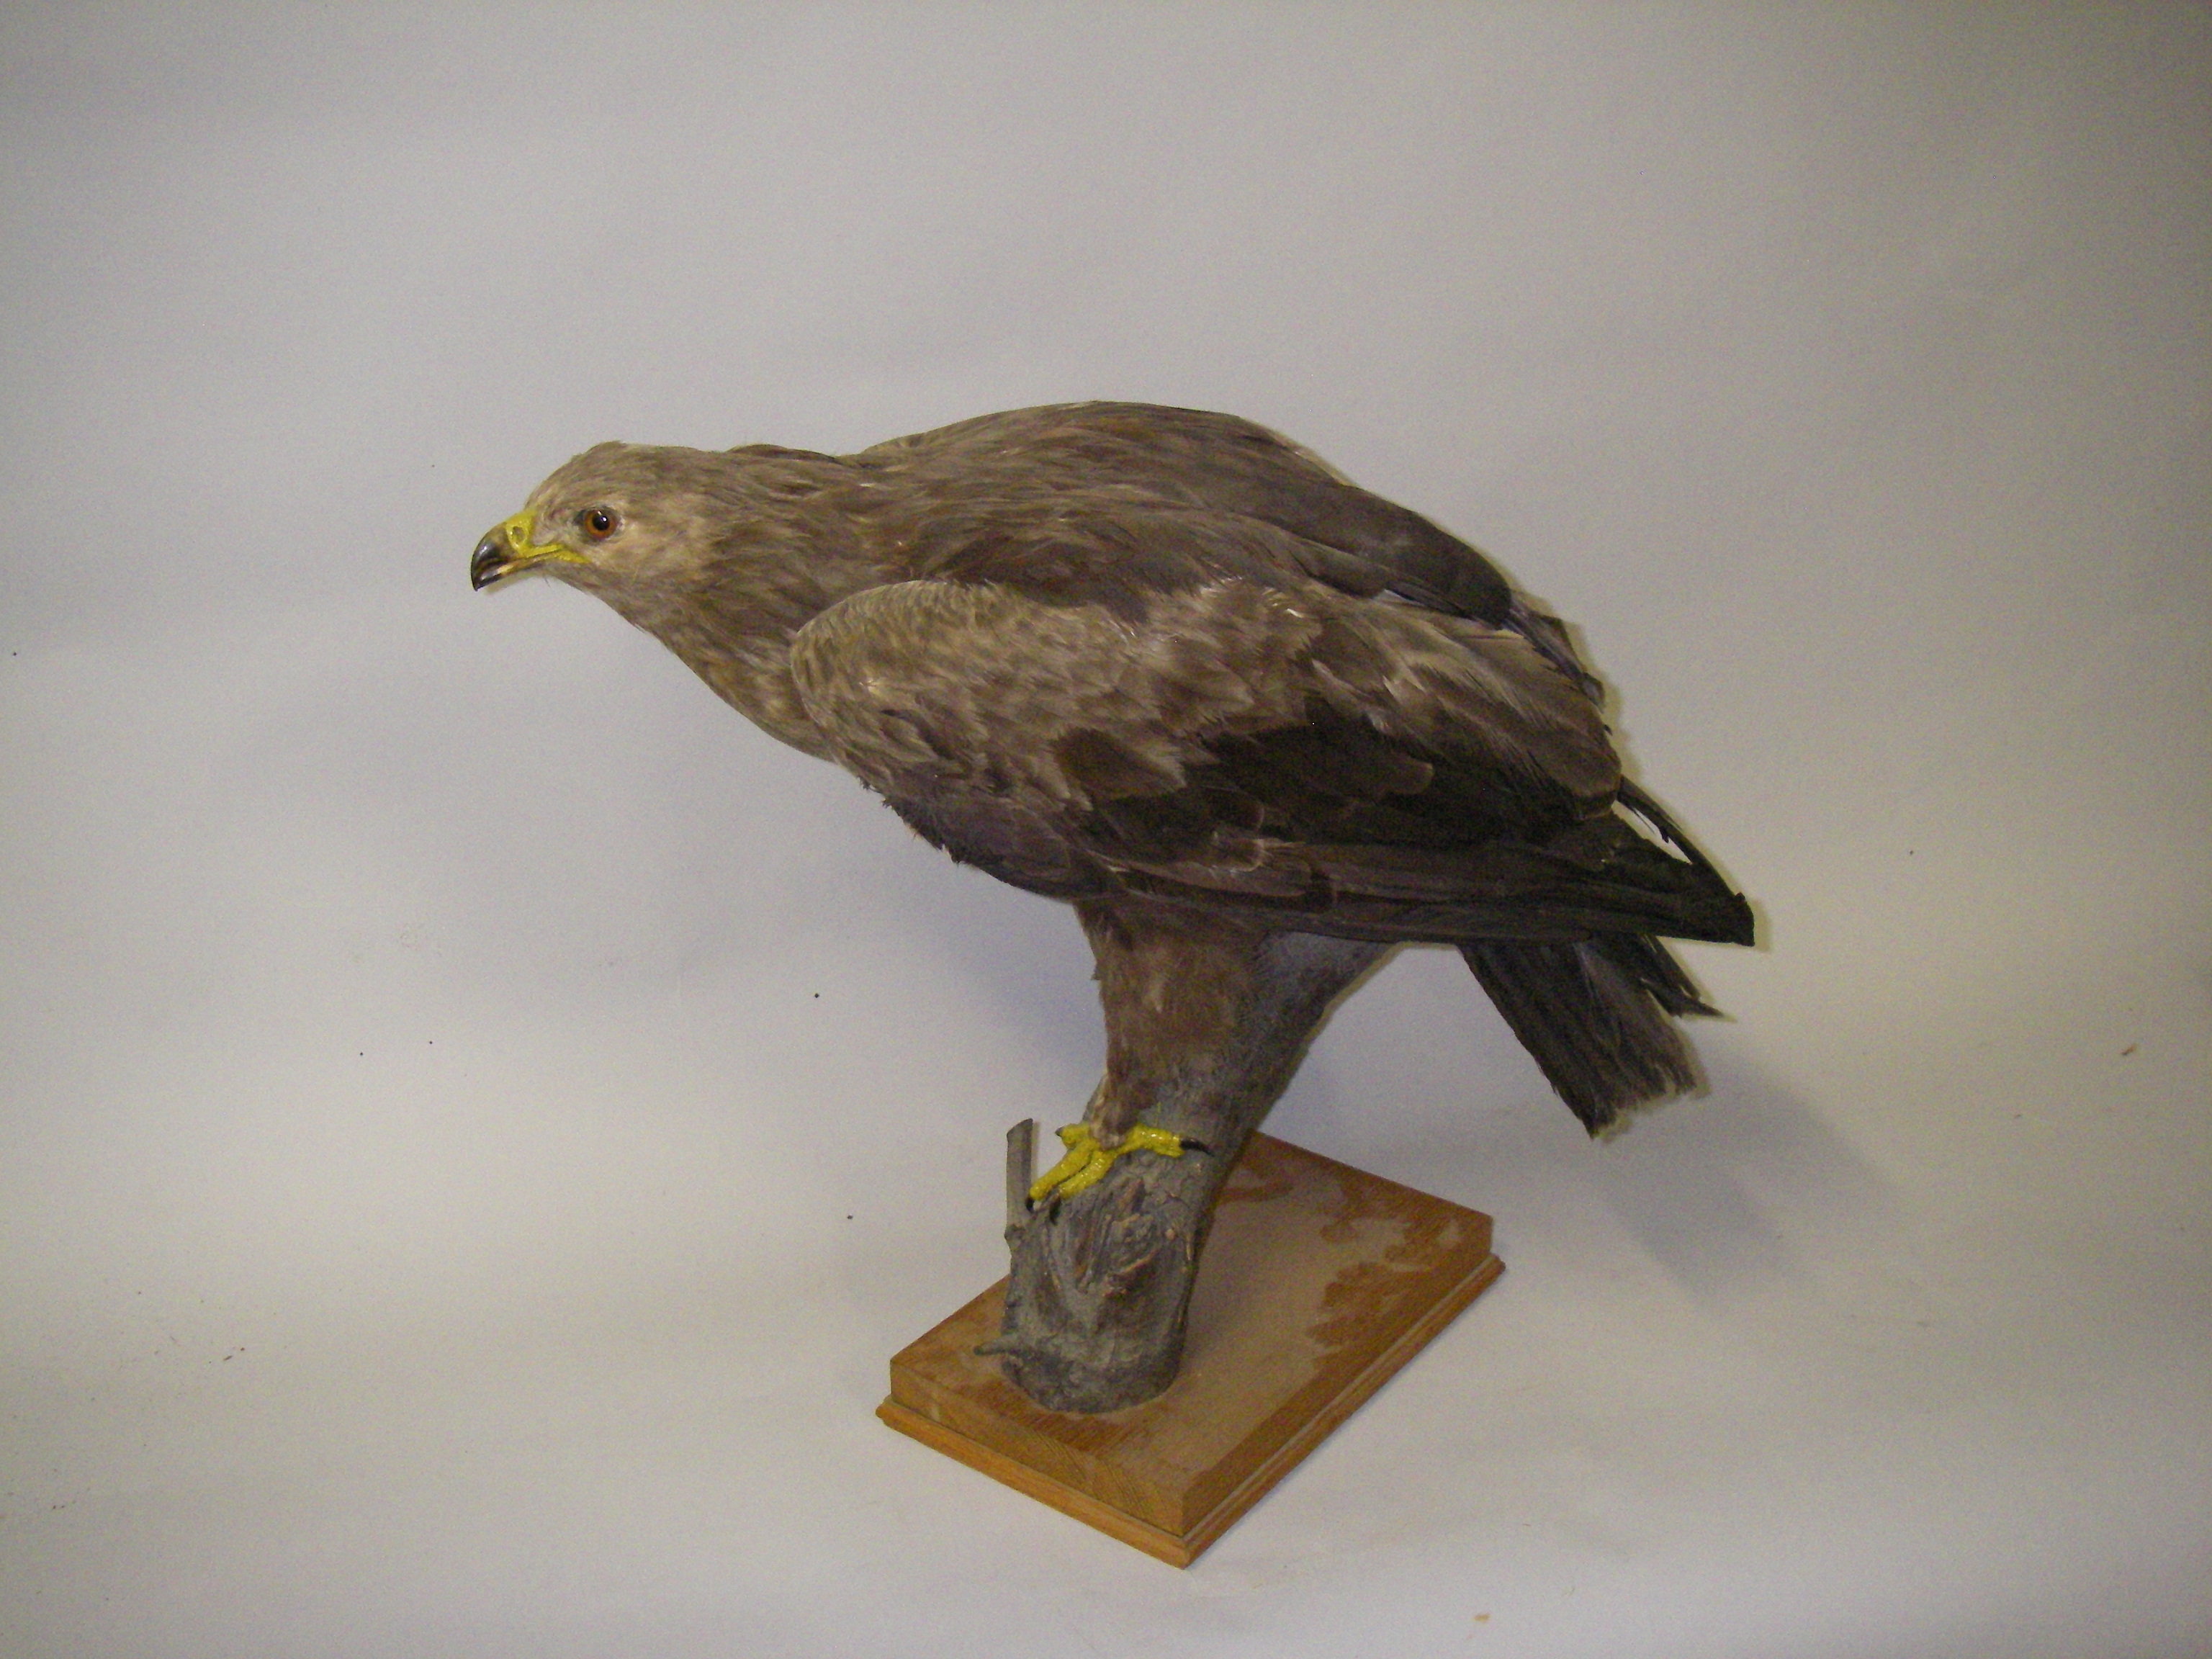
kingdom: Animalia
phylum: Chordata
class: Aves
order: Accipitriformes
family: Accipitridae
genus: Aquila
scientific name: Aquila pomarina
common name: Lesser spotted eagle
